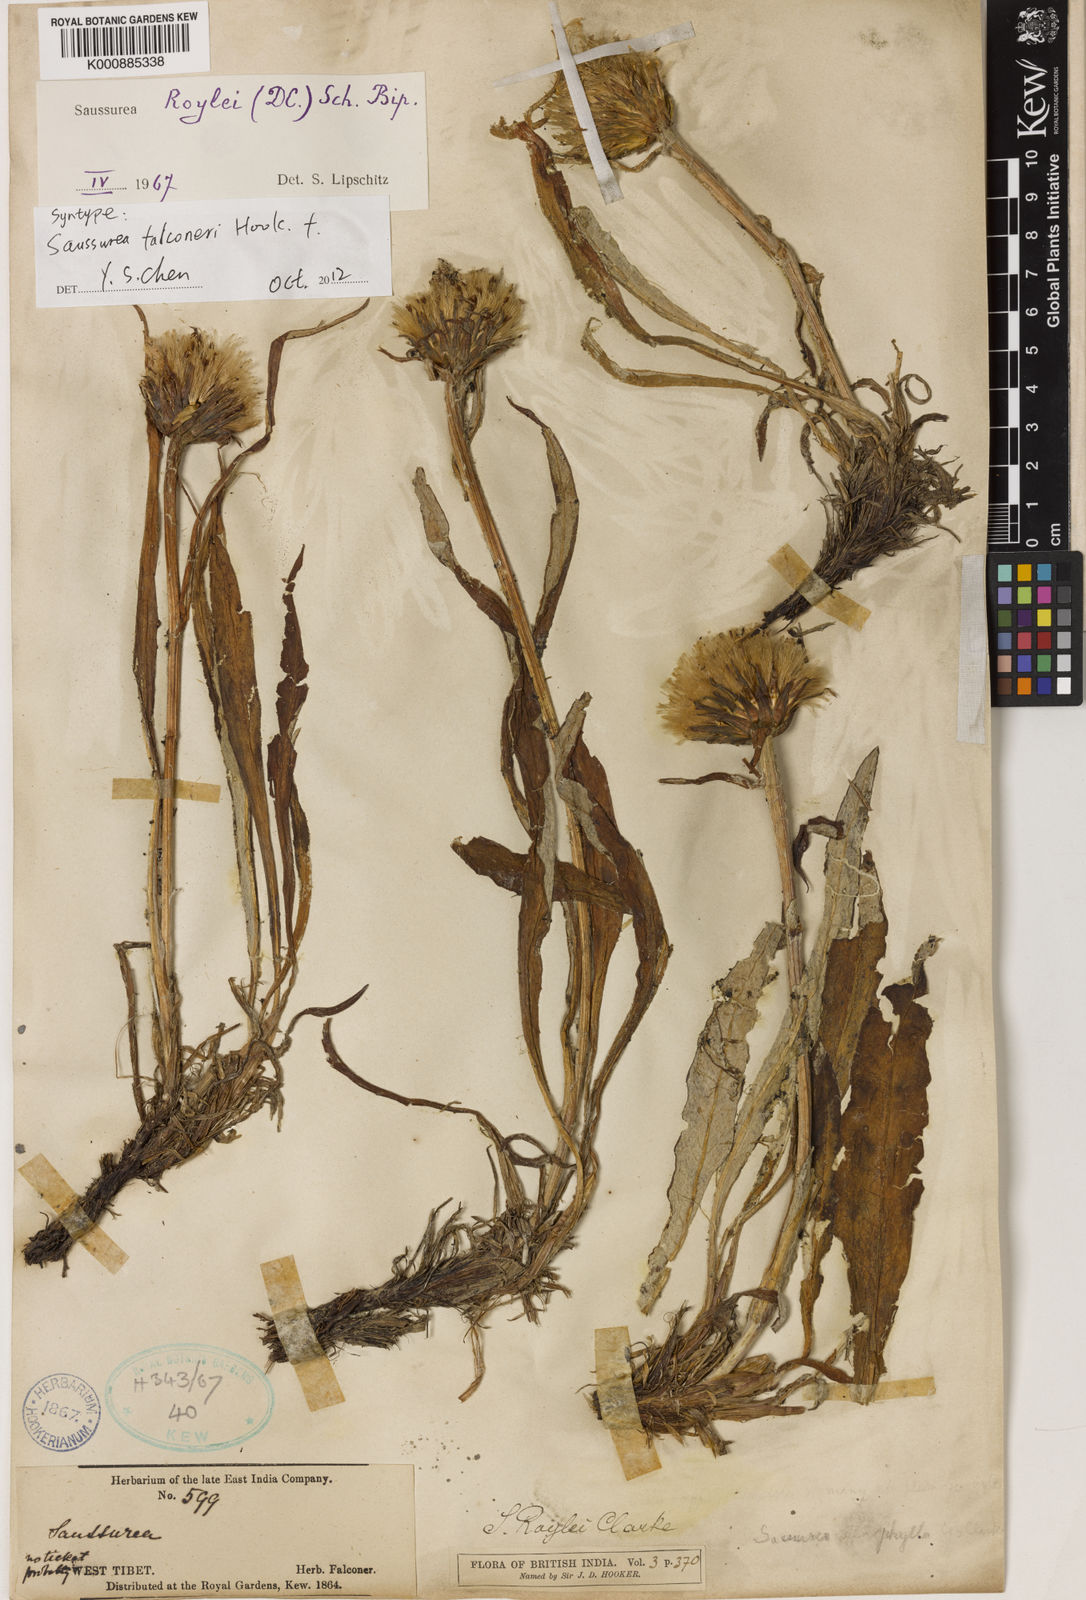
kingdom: Plantae
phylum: Tracheophyta
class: Magnoliopsida
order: Asterales
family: Asteraceae
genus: Saussurea
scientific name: Saussurea roylei
